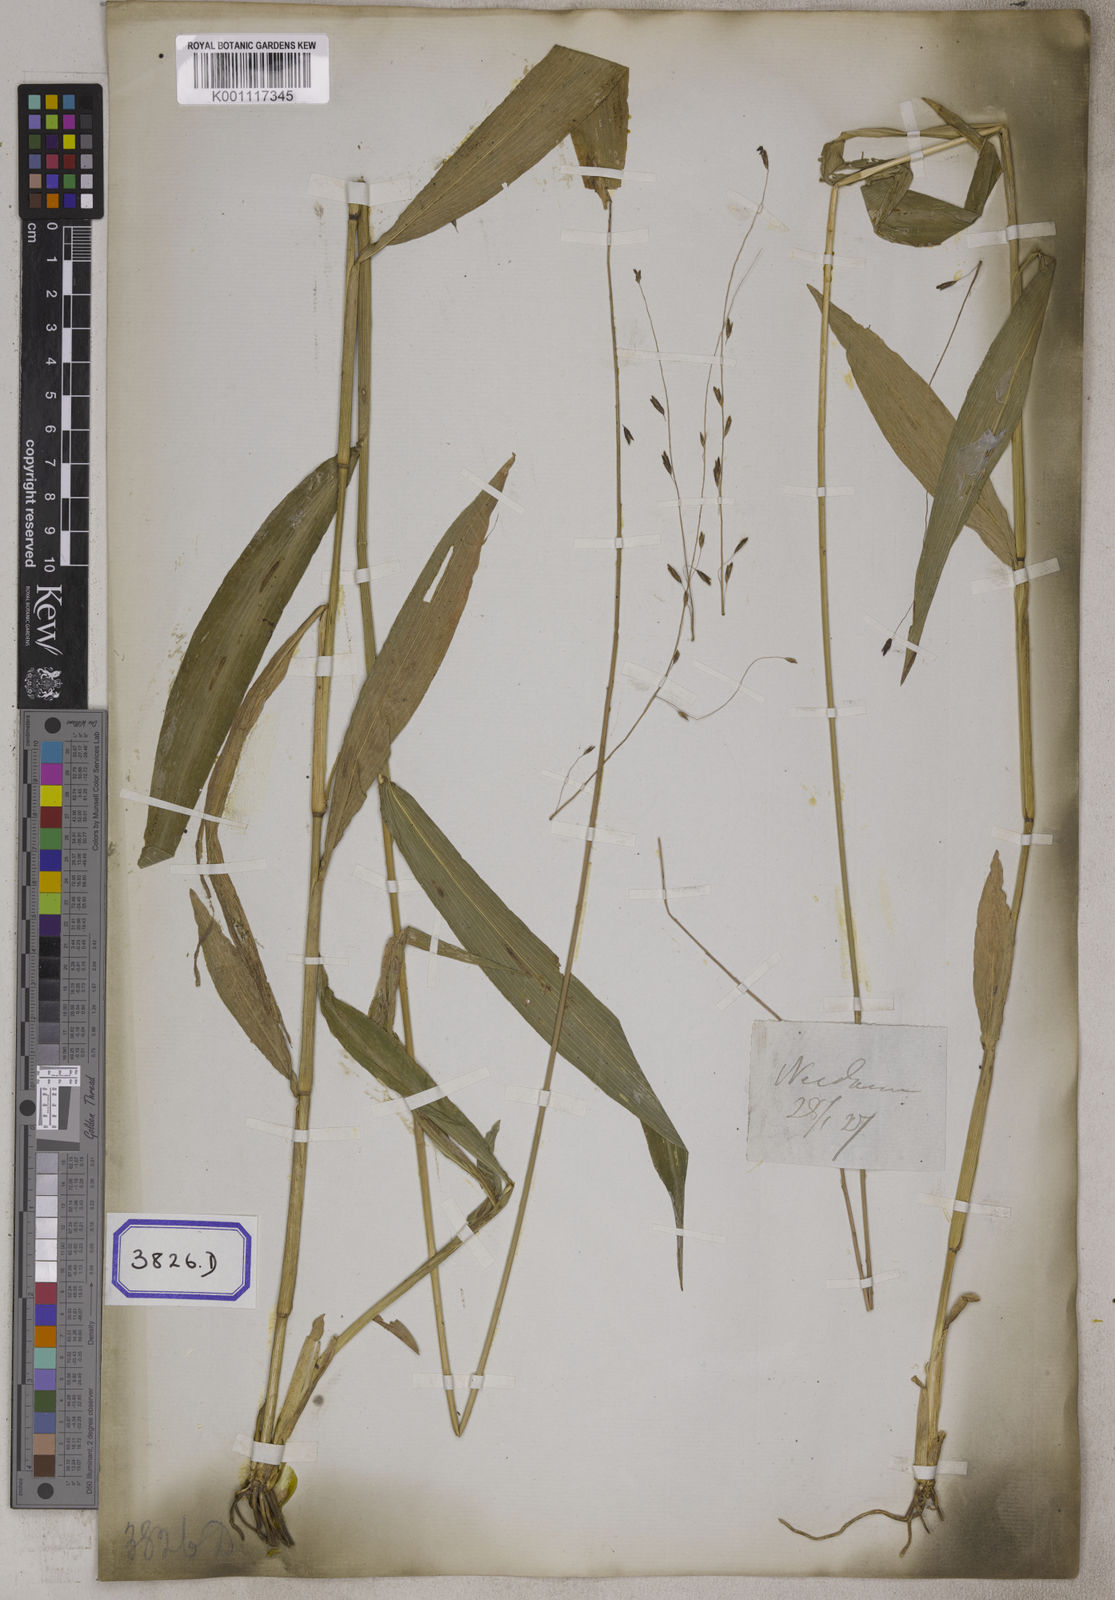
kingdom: Plantae
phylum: Tracheophyta
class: Liliopsida
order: Poales
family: Poaceae
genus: Centotheca
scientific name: Centotheca lappacea
